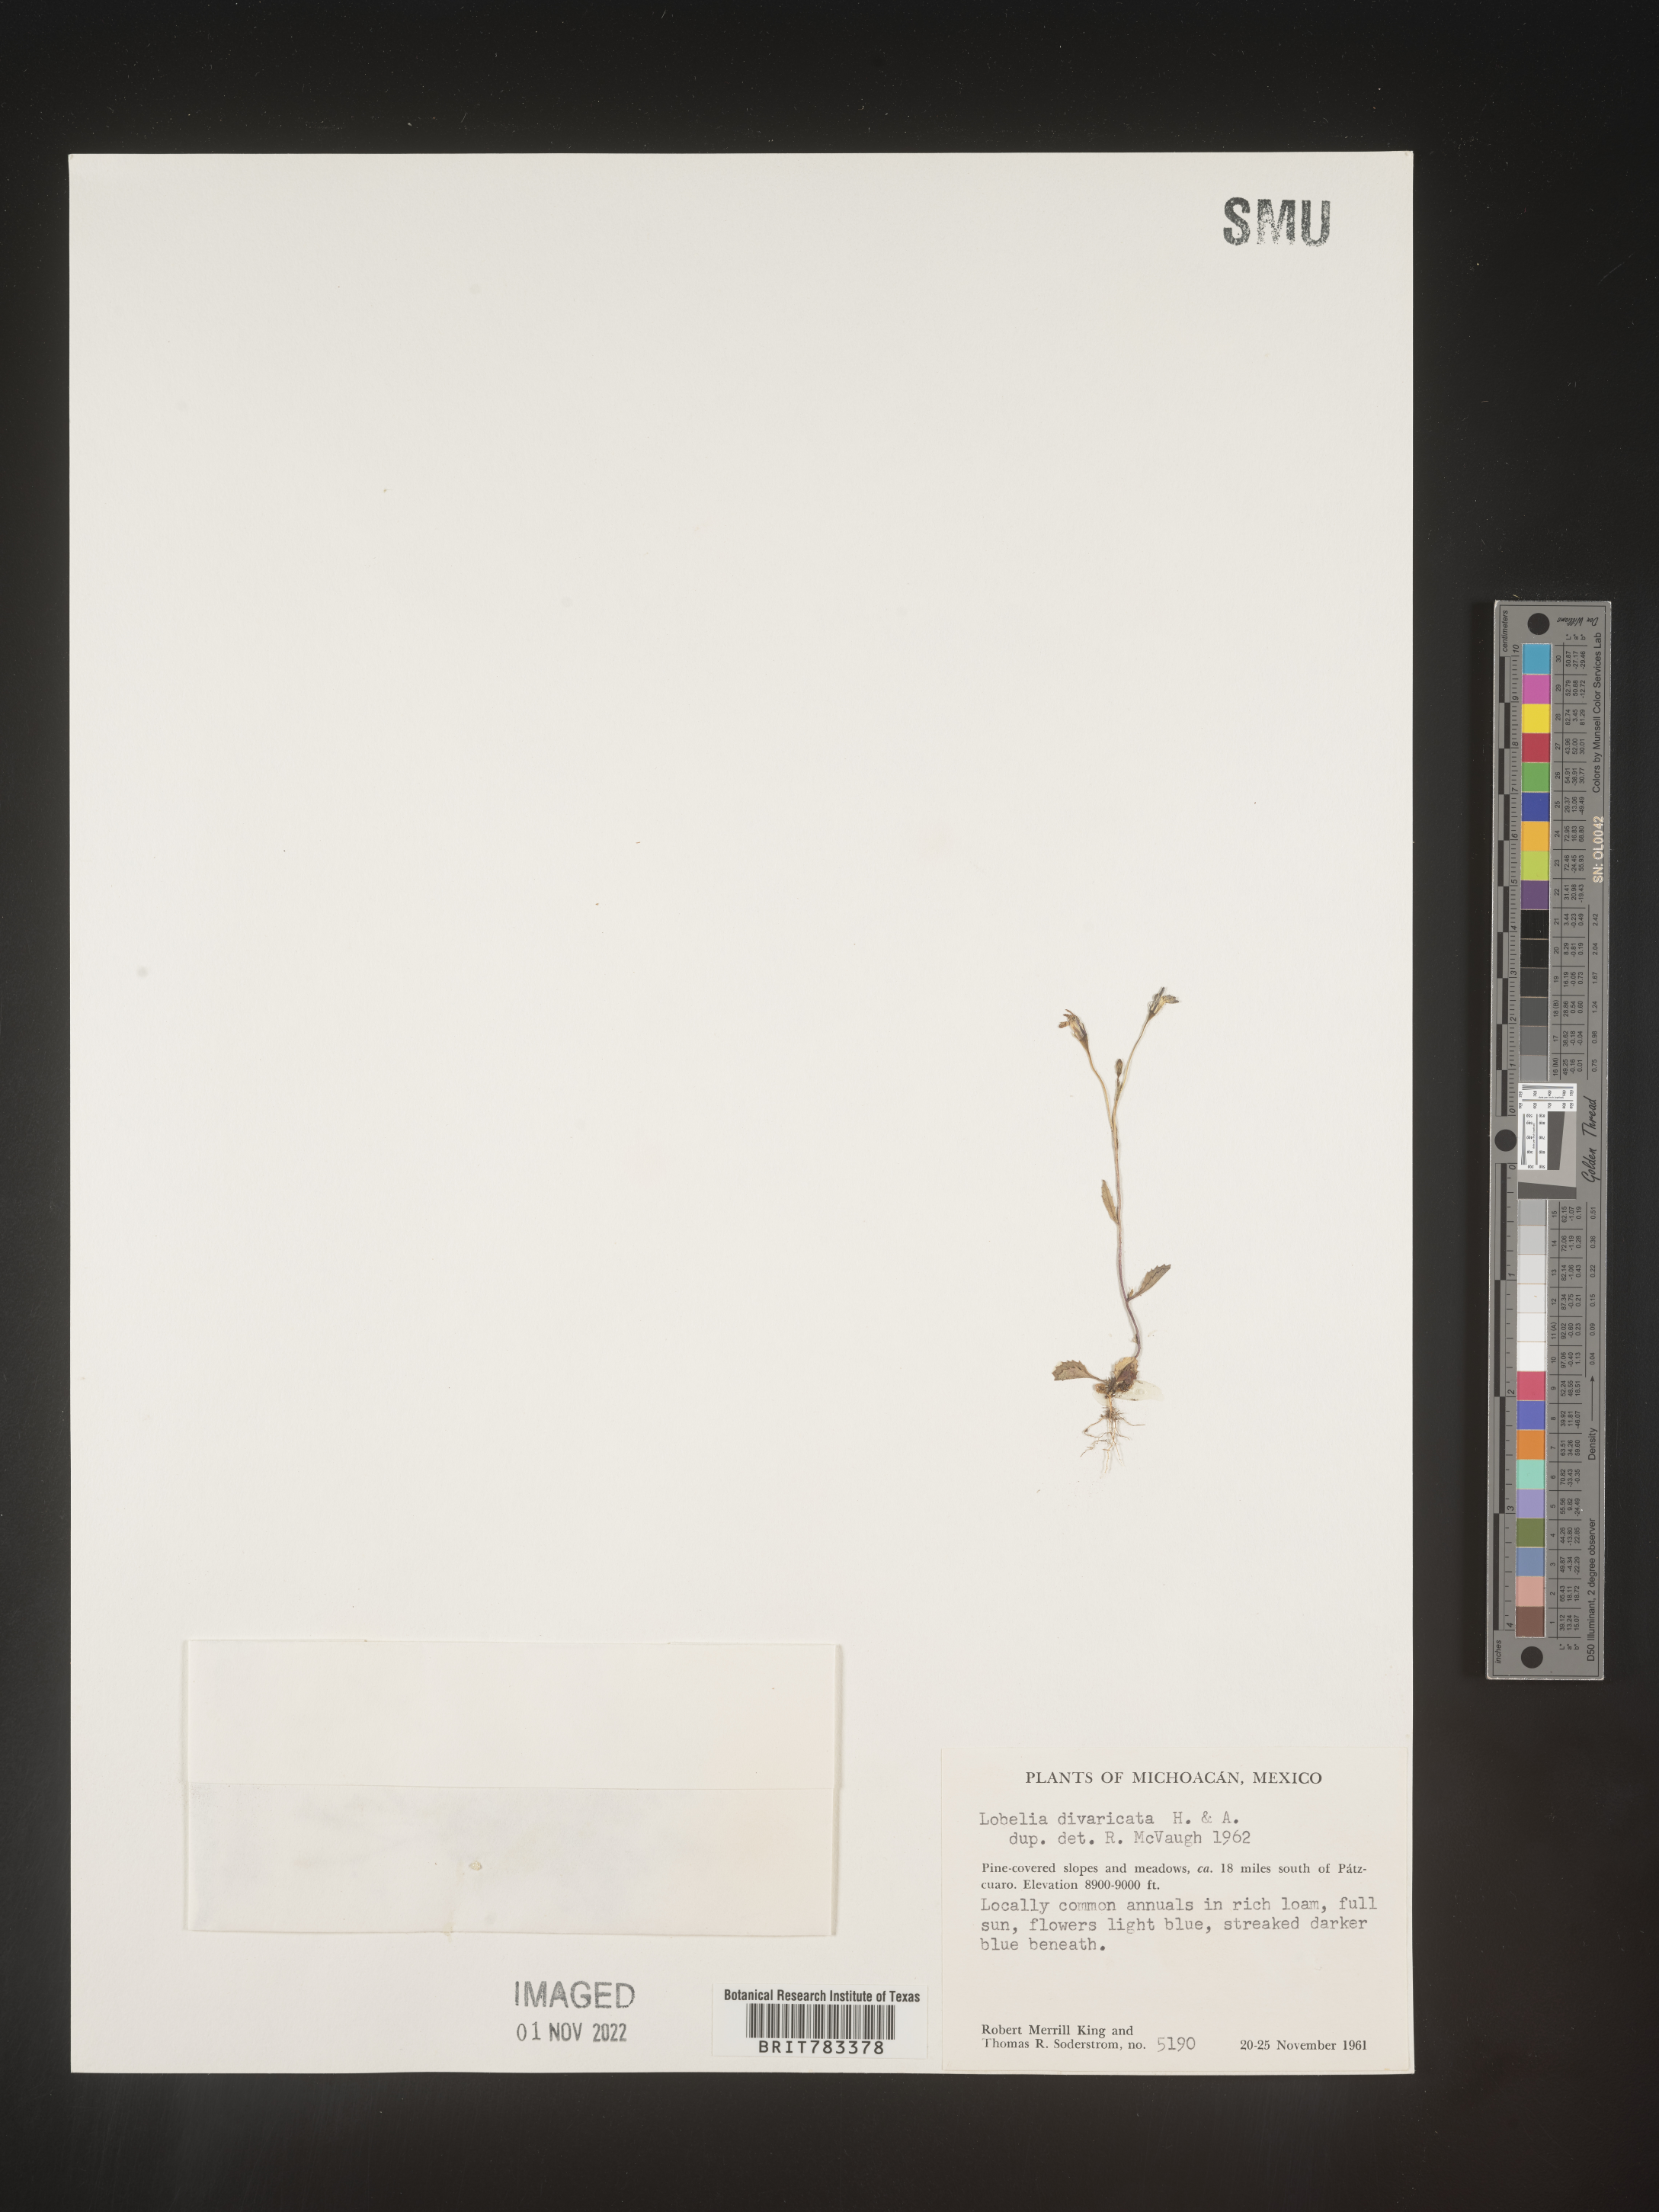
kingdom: Plantae
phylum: Tracheophyta
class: Magnoliopsida
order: Asterales
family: Campanulaceae
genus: Lobelia
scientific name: Lobelia
